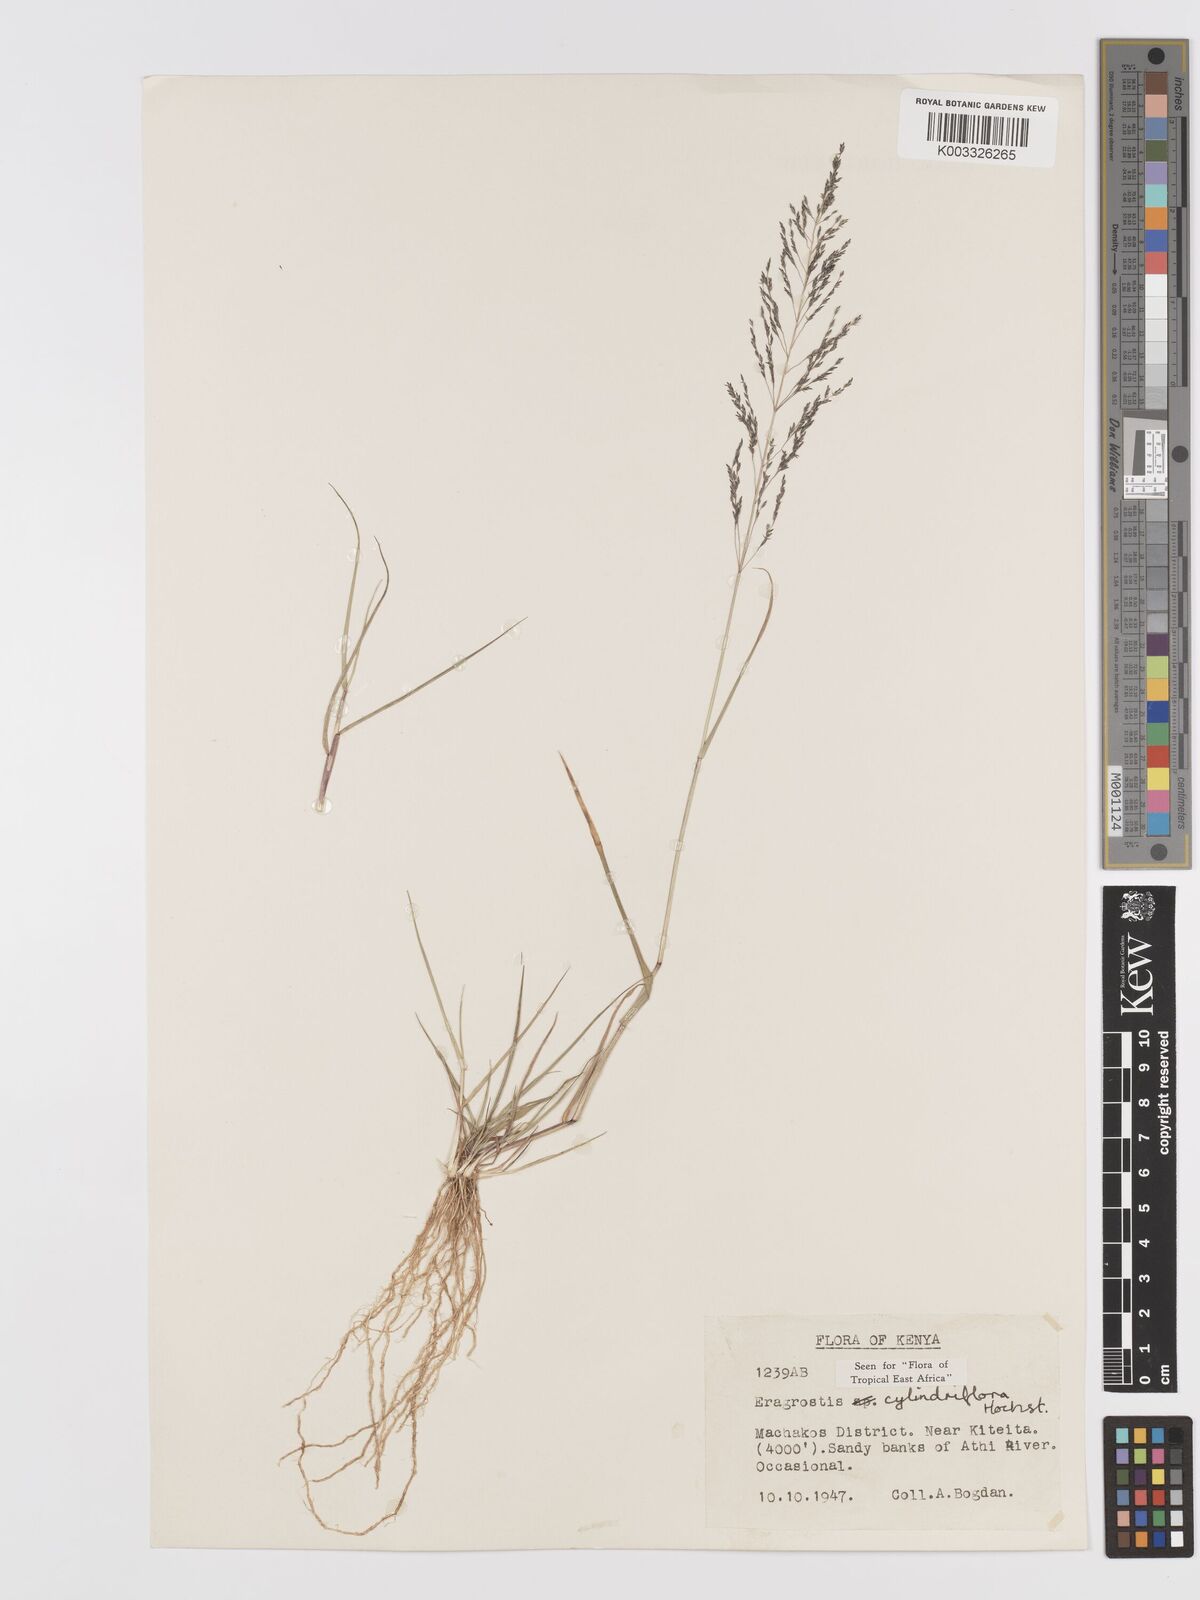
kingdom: Plantae
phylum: Tracheophyta
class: Liliopsida
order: Poales
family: Poaceae
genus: Eragrostis
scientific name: Eragrostis cylindriflora
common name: Cylinderflower lovegrass
